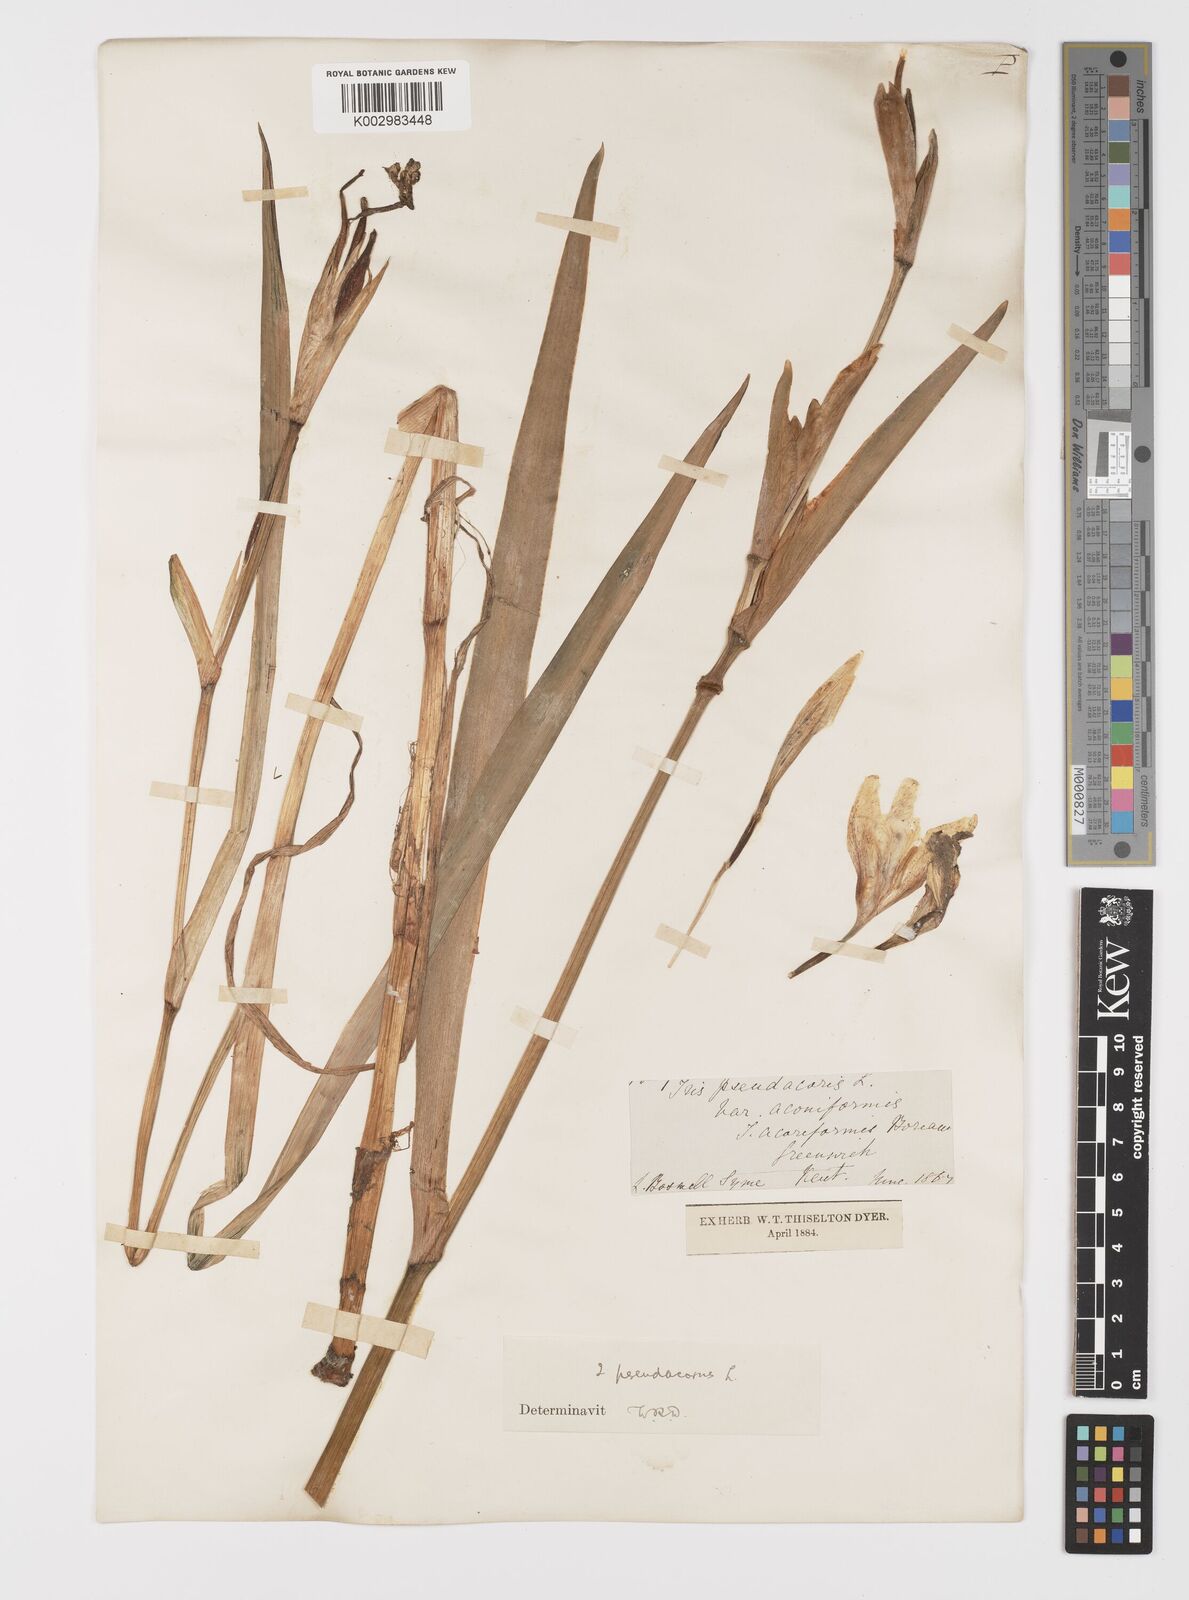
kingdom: Plantae
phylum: Tracheophyta
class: Liliopsida
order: Asparagales
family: Iridaceae
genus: Iris
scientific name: Iris pseudacorus
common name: Yellow flag
